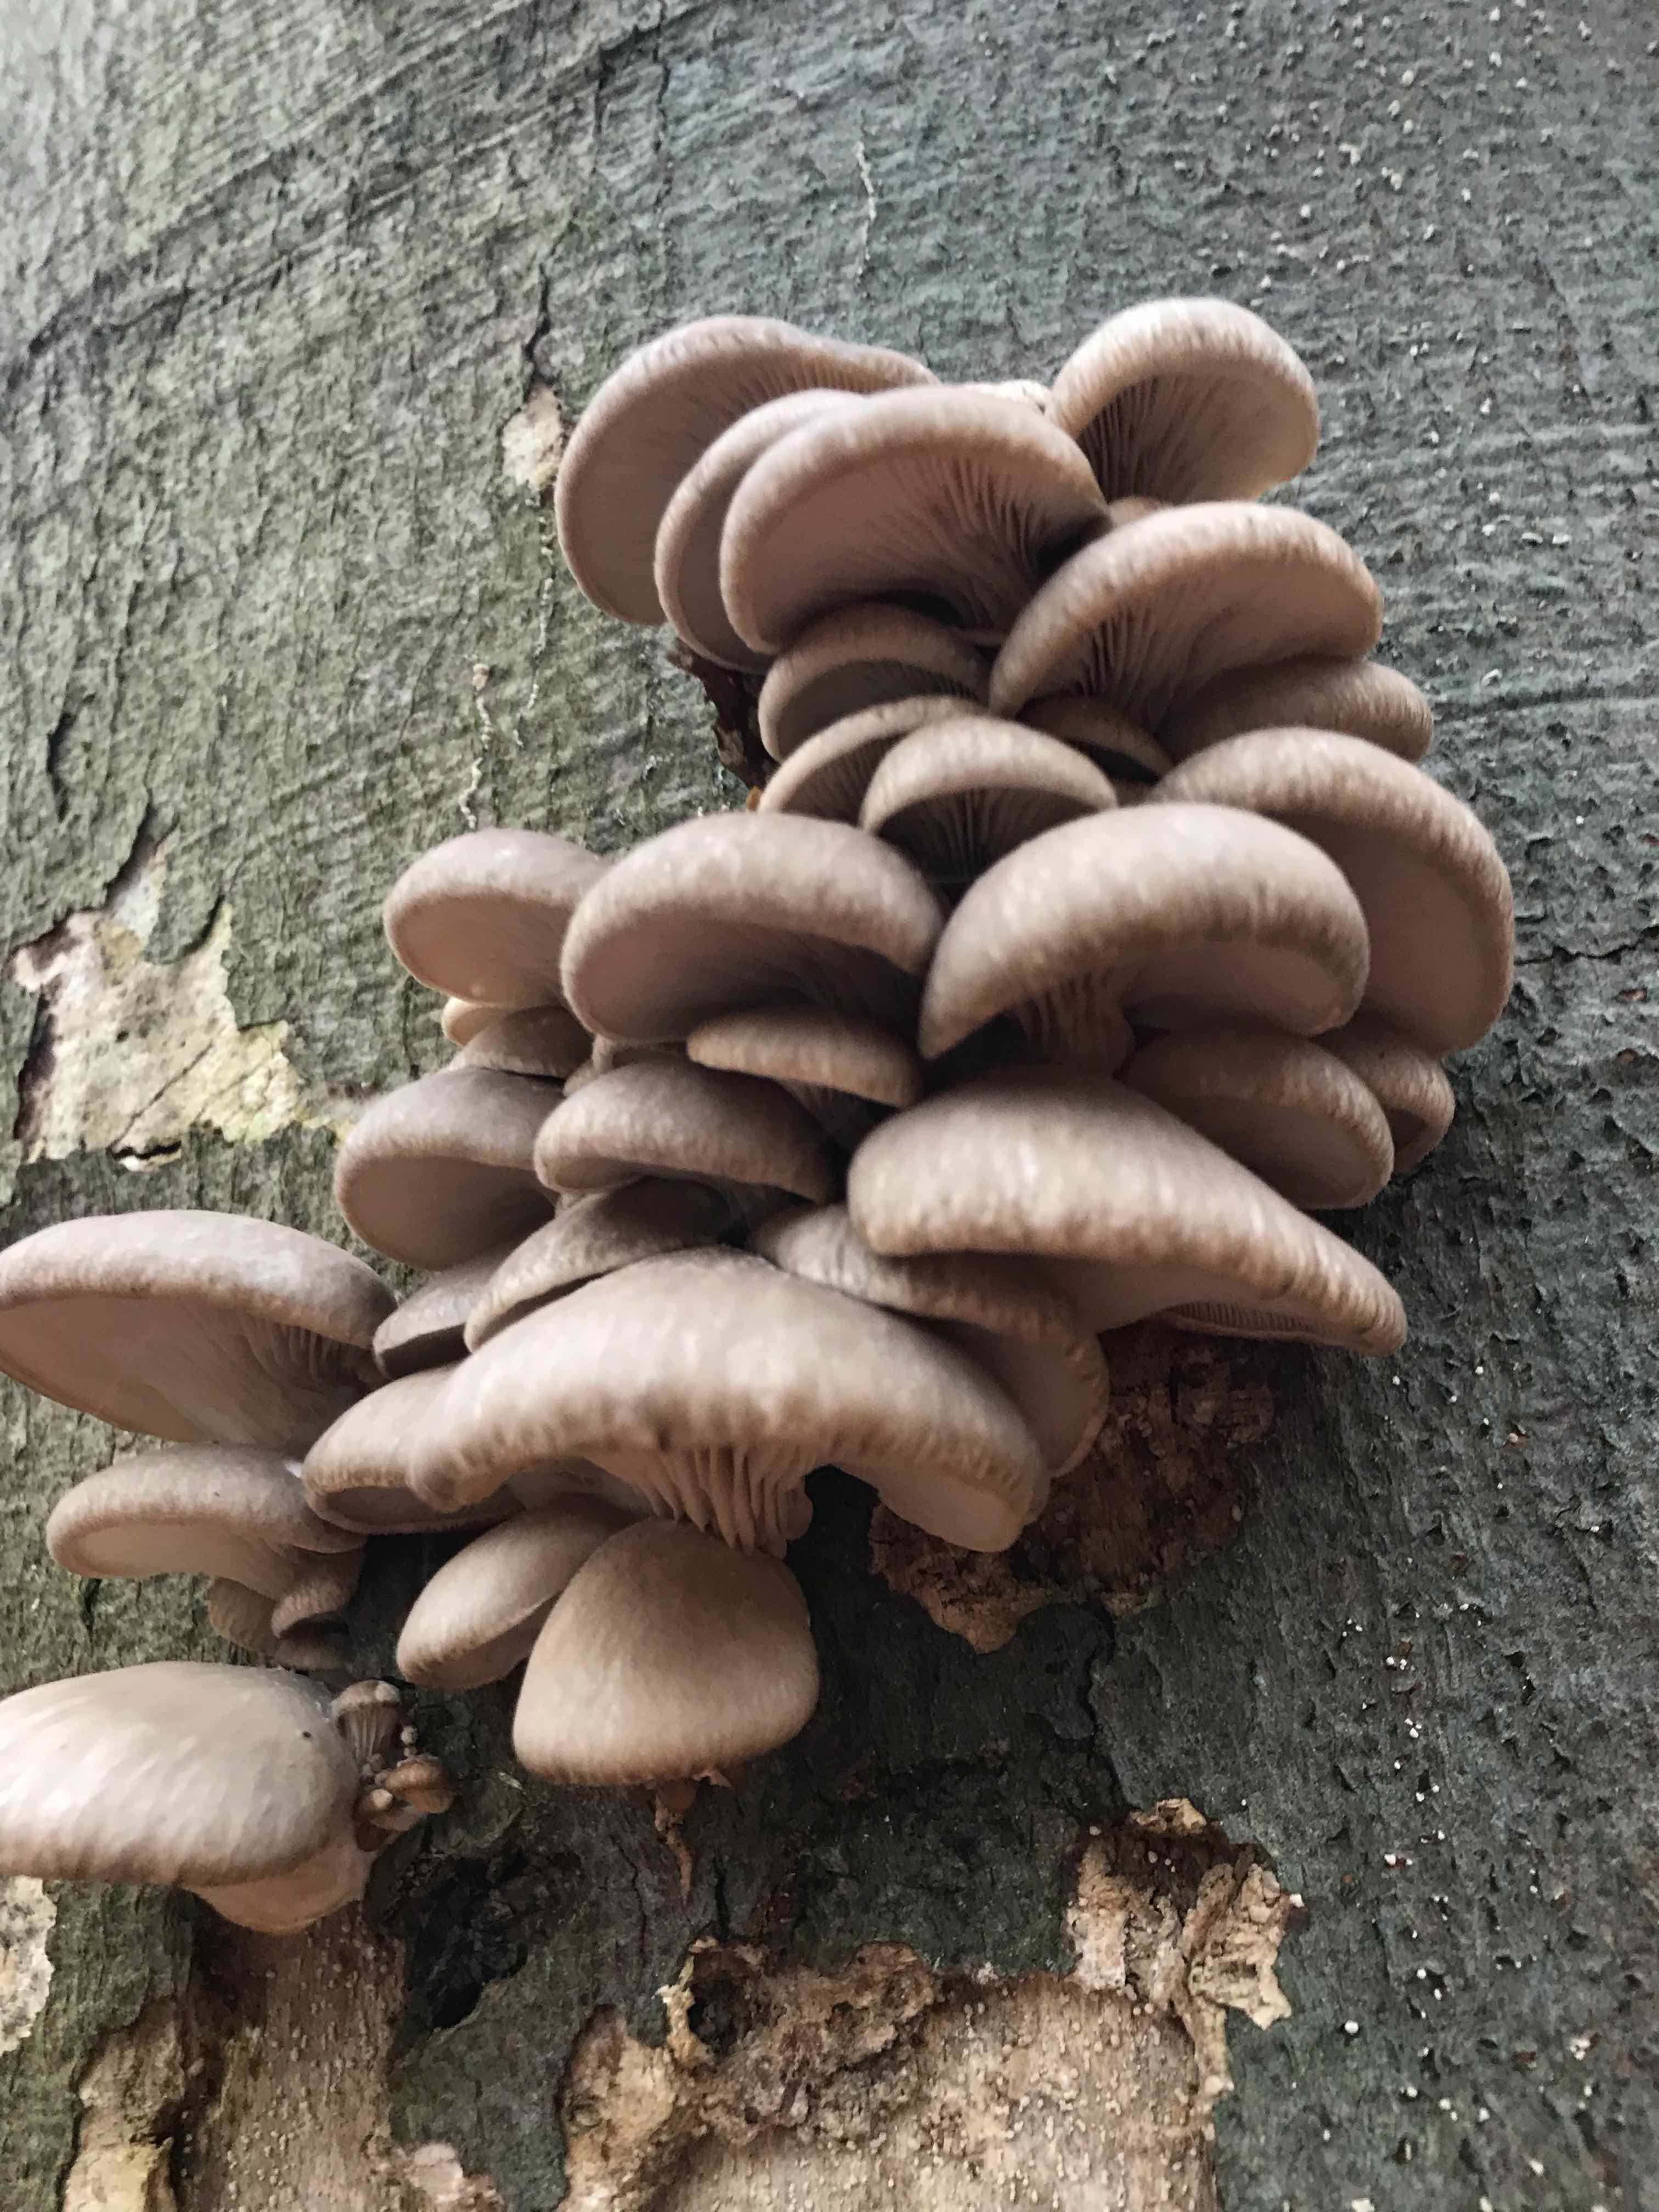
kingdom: Fungi
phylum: Basidiomycota
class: Agaricomycetes
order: Agaricales
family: Pleurotaceae
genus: Pleurotus
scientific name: Pleurotus ostreatus
